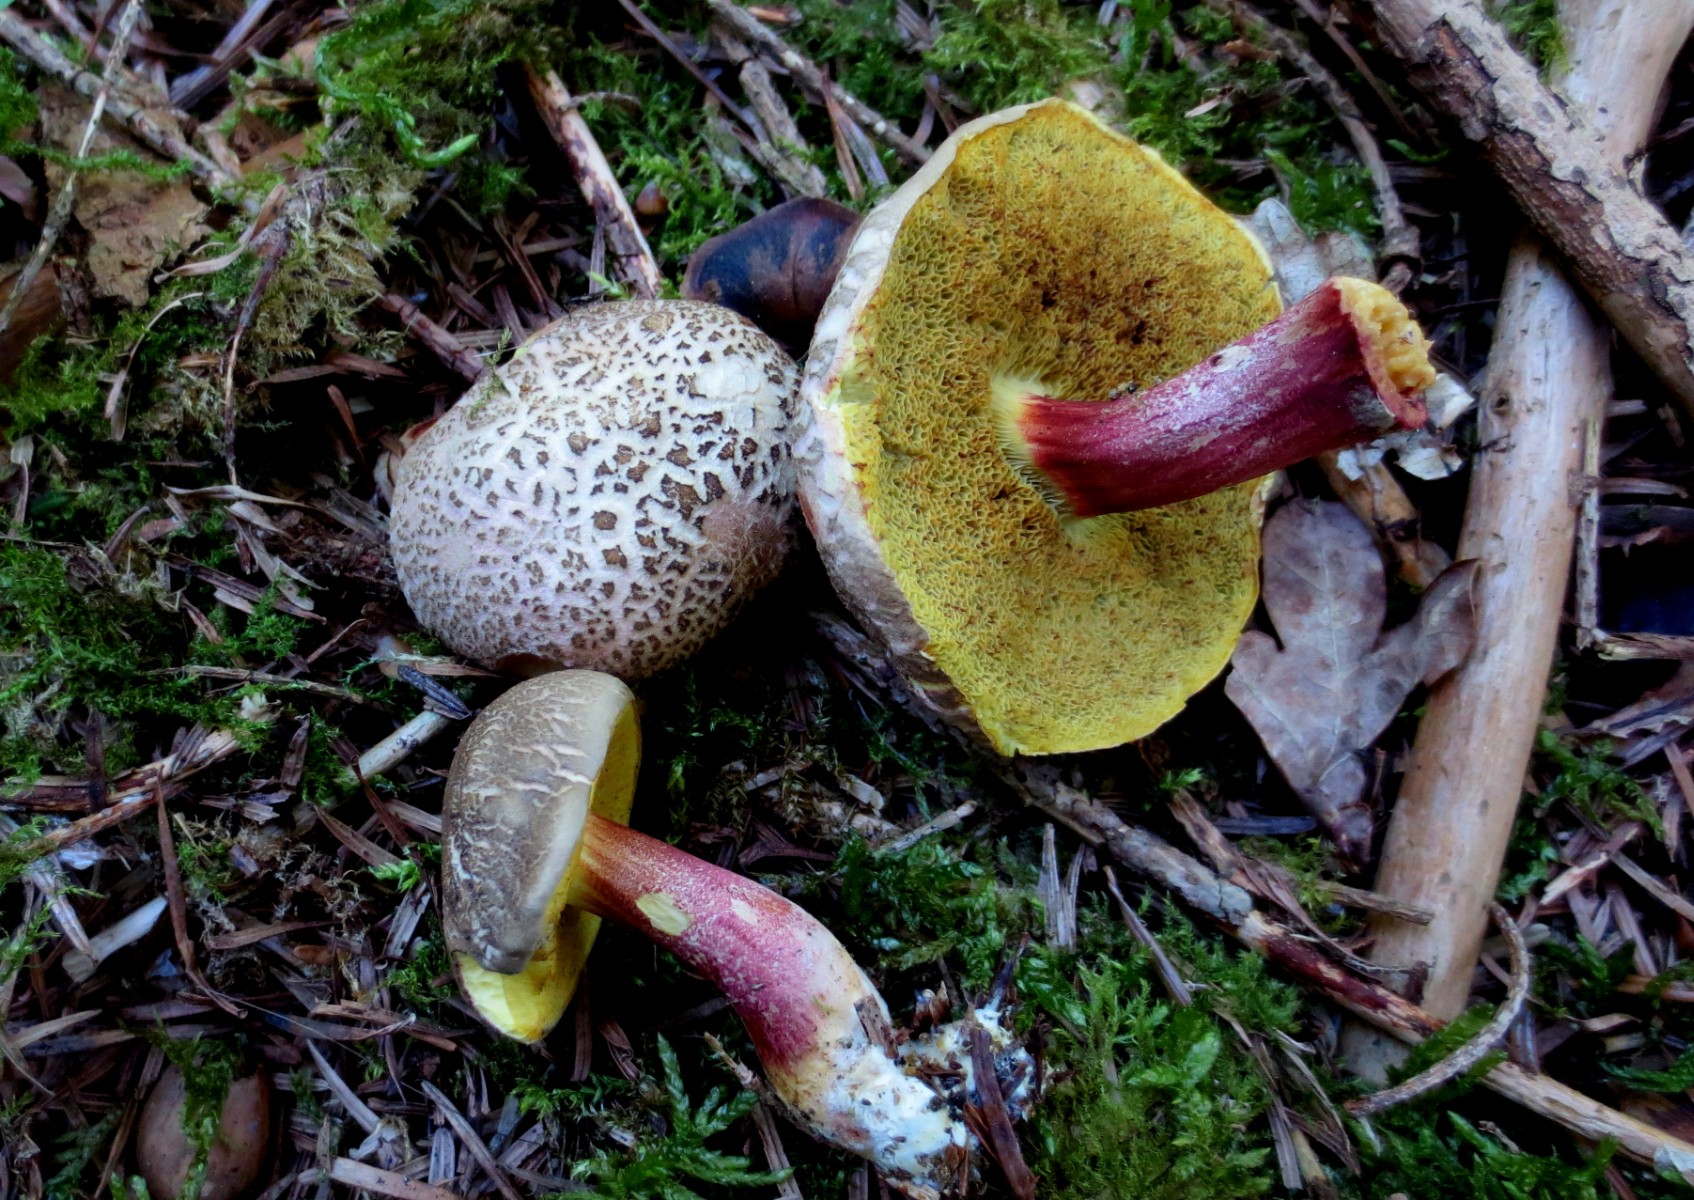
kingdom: Fungi
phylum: Basidiomycota
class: Agaricomycetes
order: Boletales
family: Boletaceae
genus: Xerocomellus
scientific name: Xerocomellus chrysenteron
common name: rødsprukken rørhat
